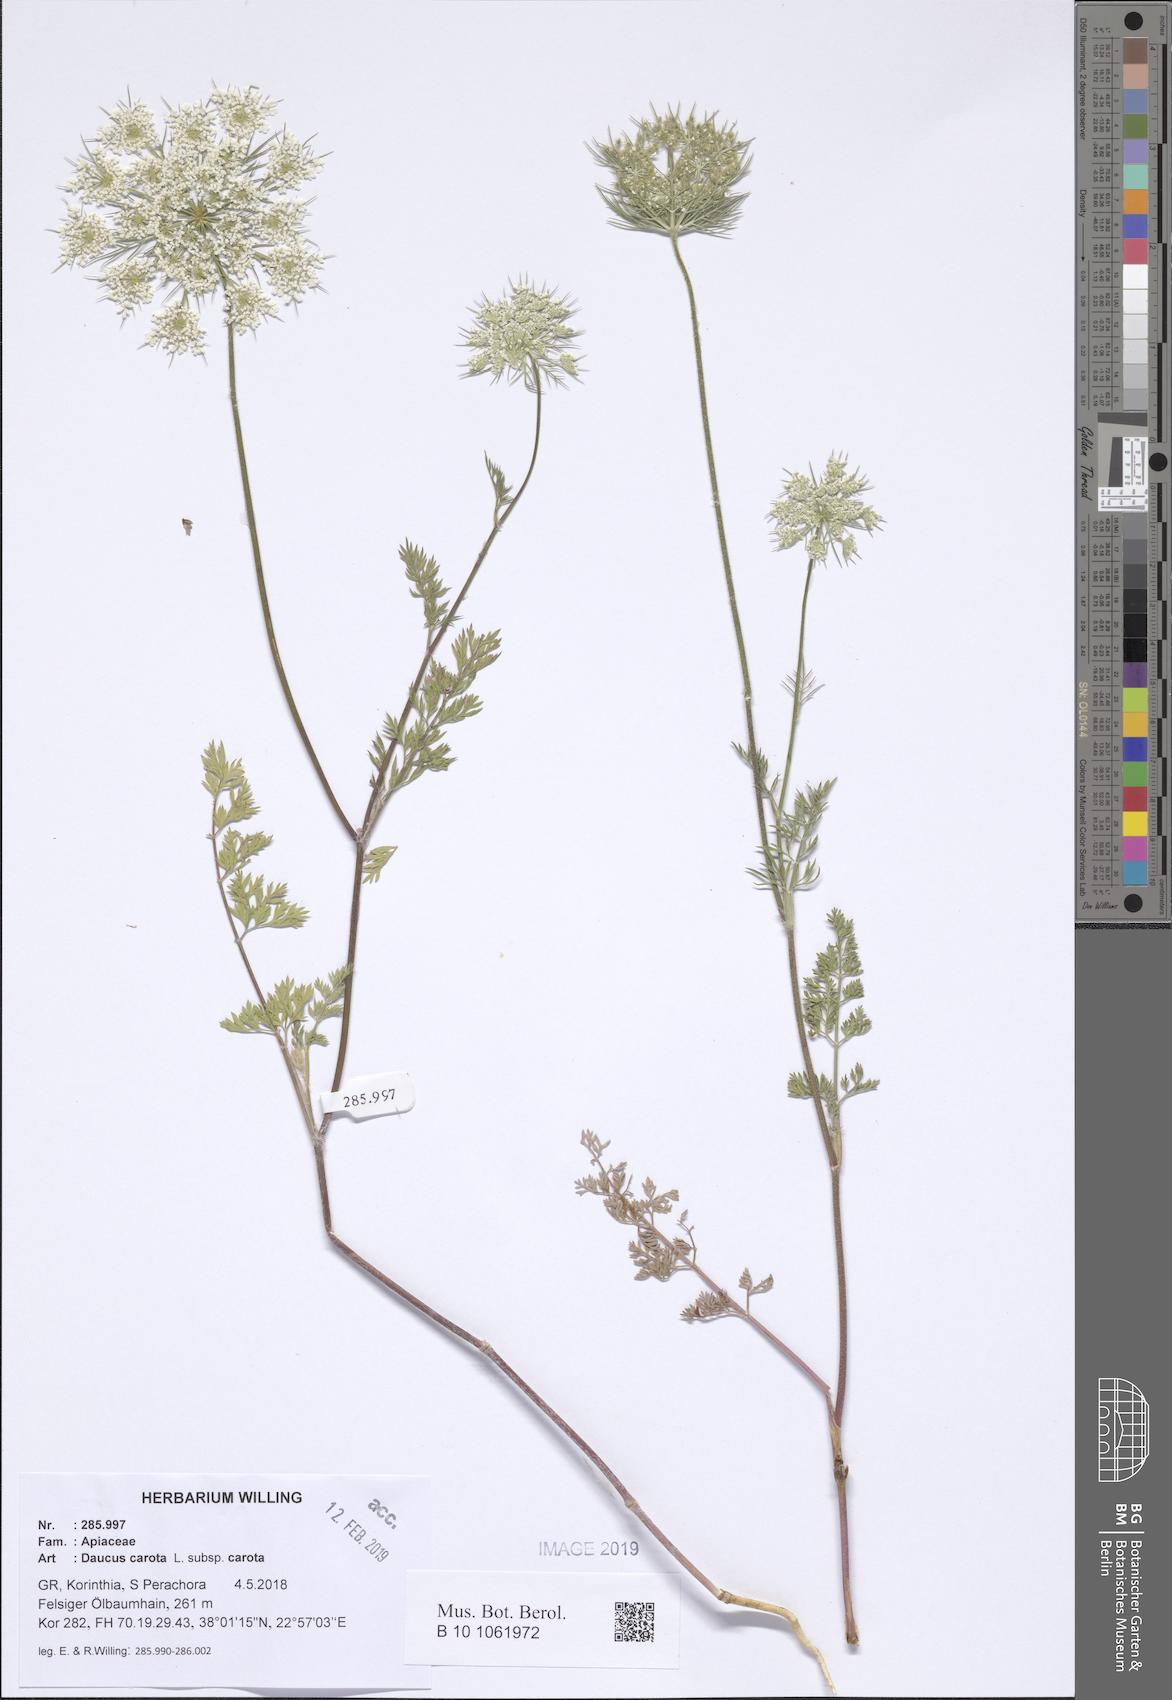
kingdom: Plantae
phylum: Tracheophyta
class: Magnoliopsida
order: Apiales
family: Apiaceae
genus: Daucus
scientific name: Daucus carota
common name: Wild carrot
